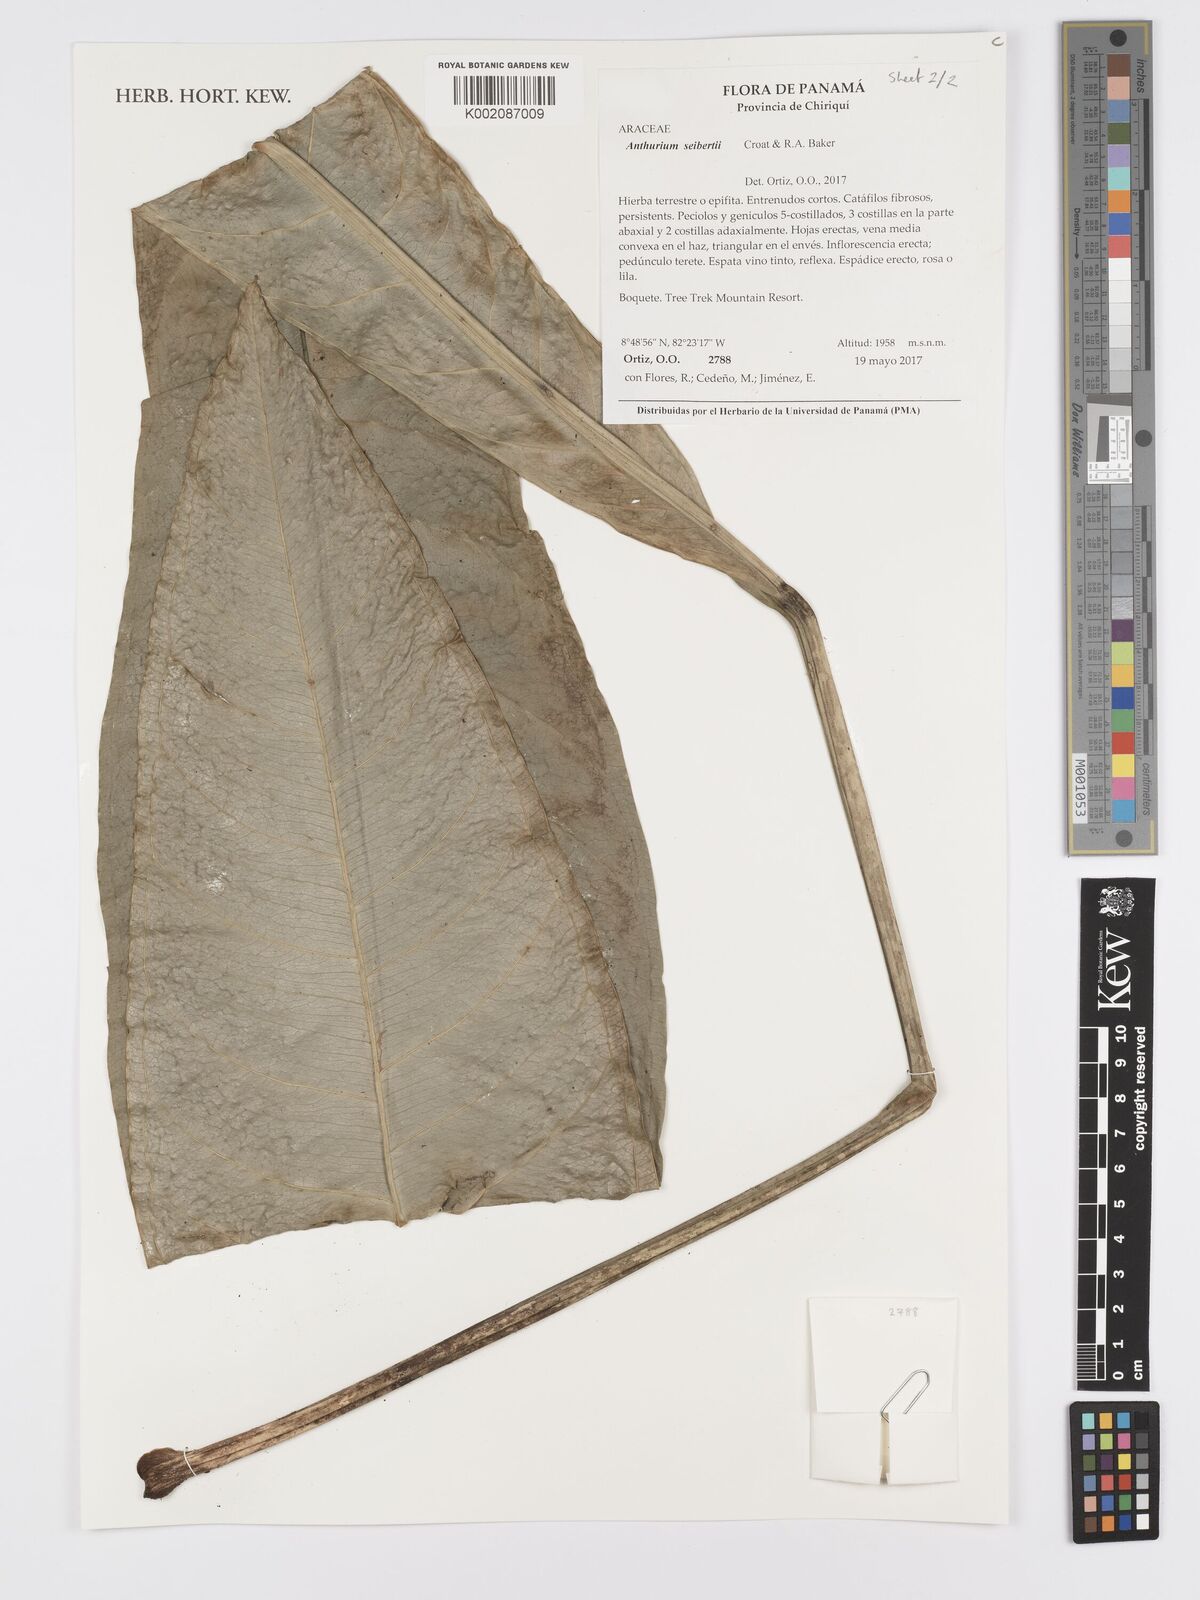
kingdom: Plantae
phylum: Tracheophyta
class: Liliopsida
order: Alismatales
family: Araceae
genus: Anthurium
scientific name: Anthurium seibertii
